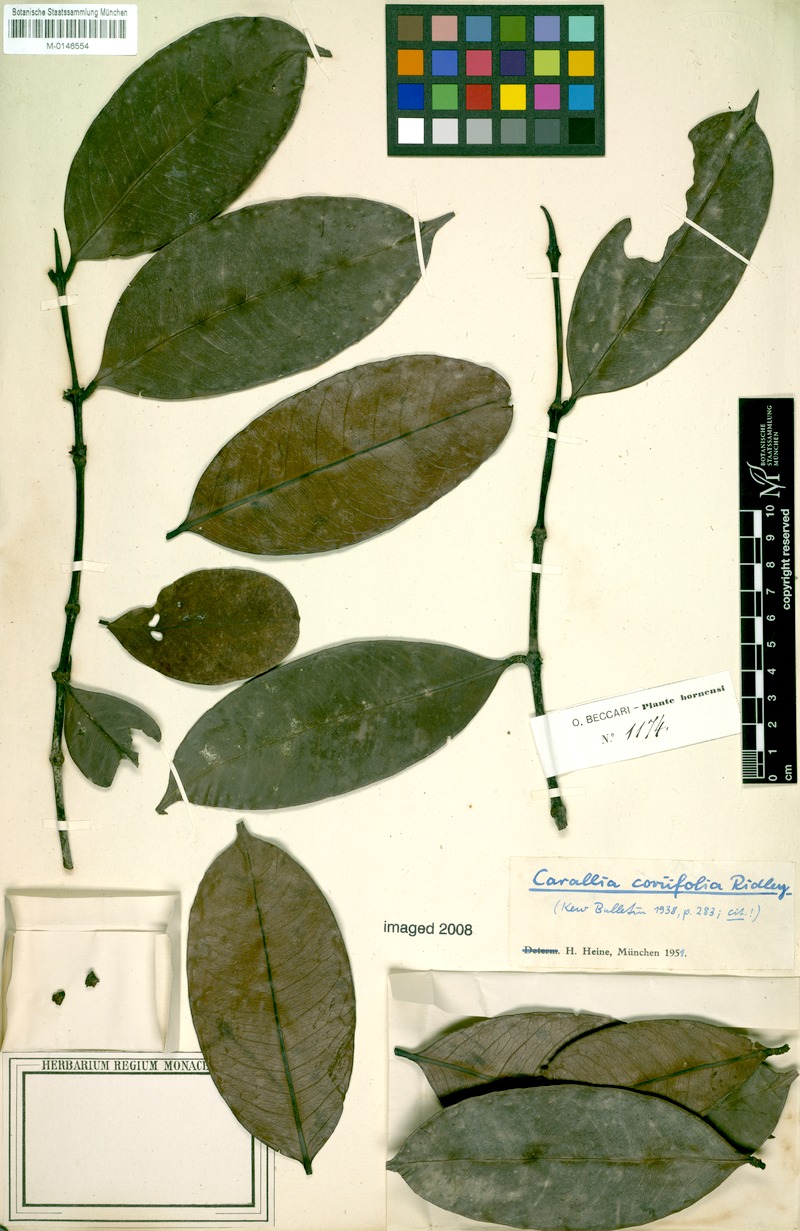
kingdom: Plantae
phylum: Tracheophyta
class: Magnoliopsida
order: Malpighiales
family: Rhizophoraceae
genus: Carallia
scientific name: Carallia coriifolia
